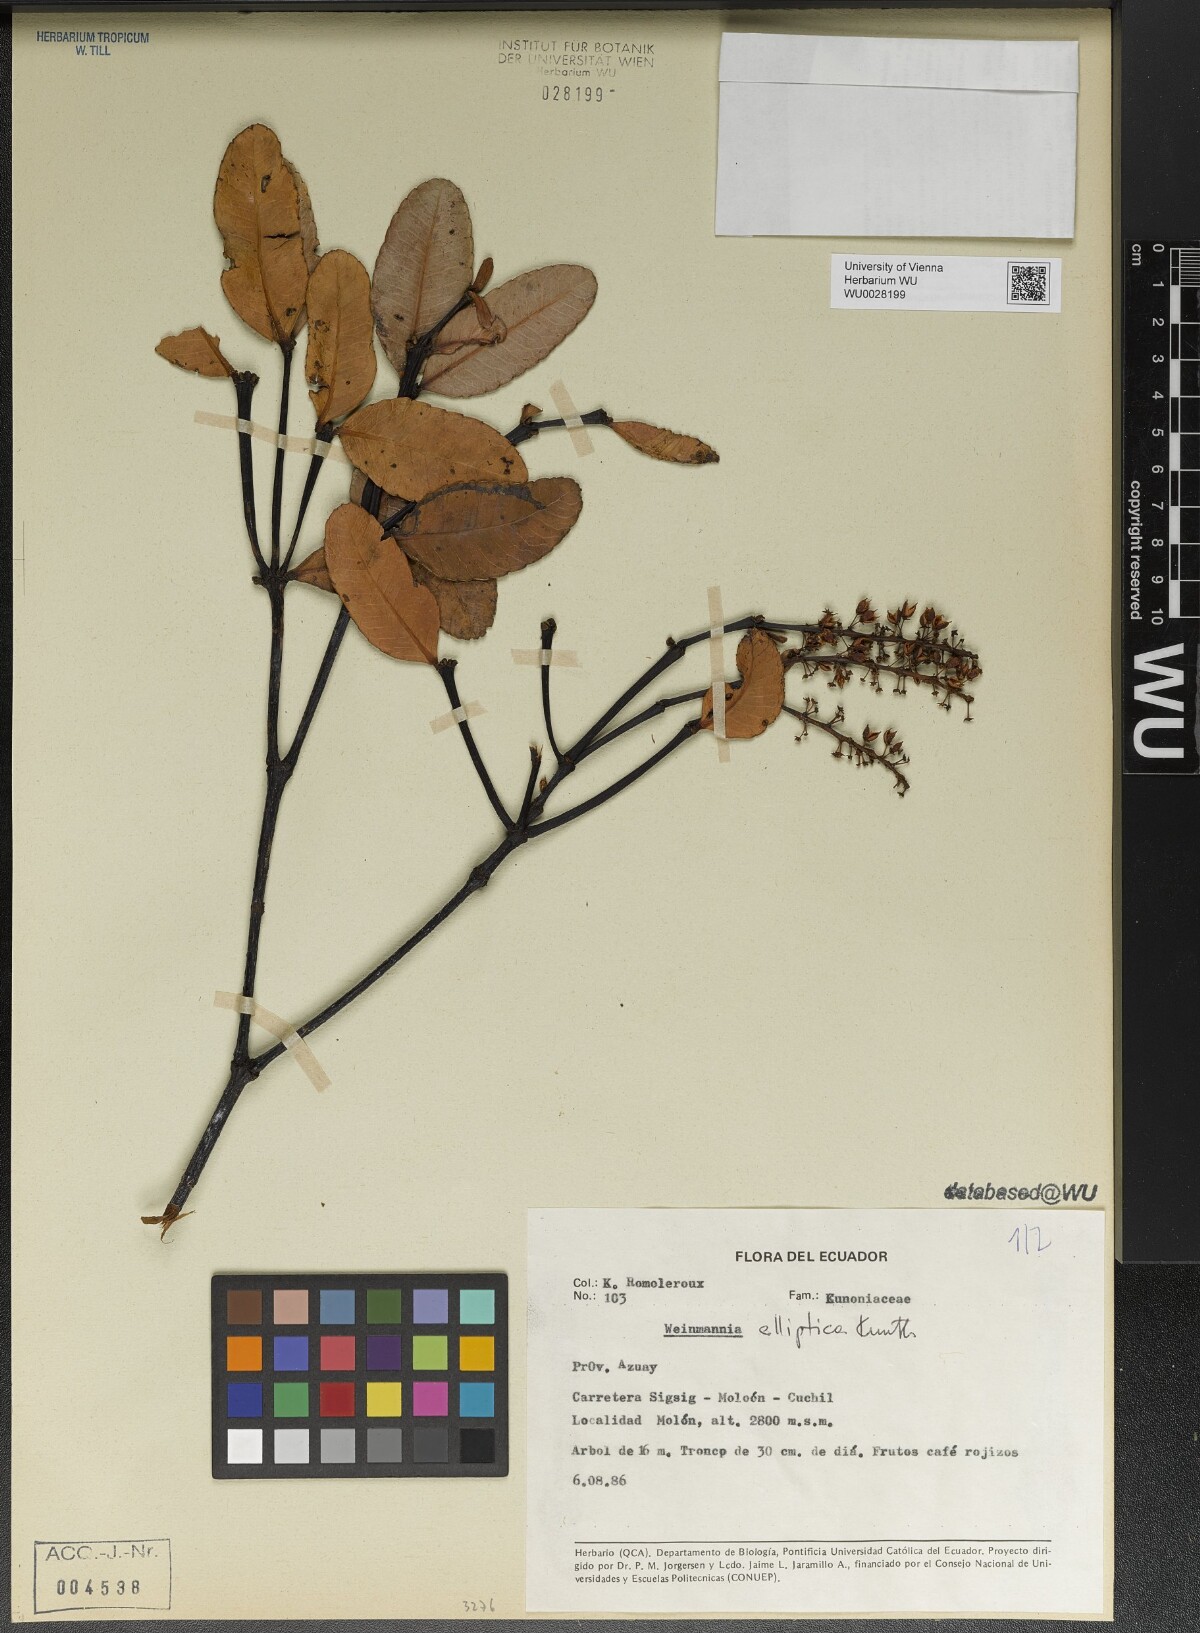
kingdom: Plantae
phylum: Tracheophyta
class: Magnoliopsida
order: Oxalidales
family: Cunoniaceae
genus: Weinmannia
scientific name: Weinmannia elliptica
